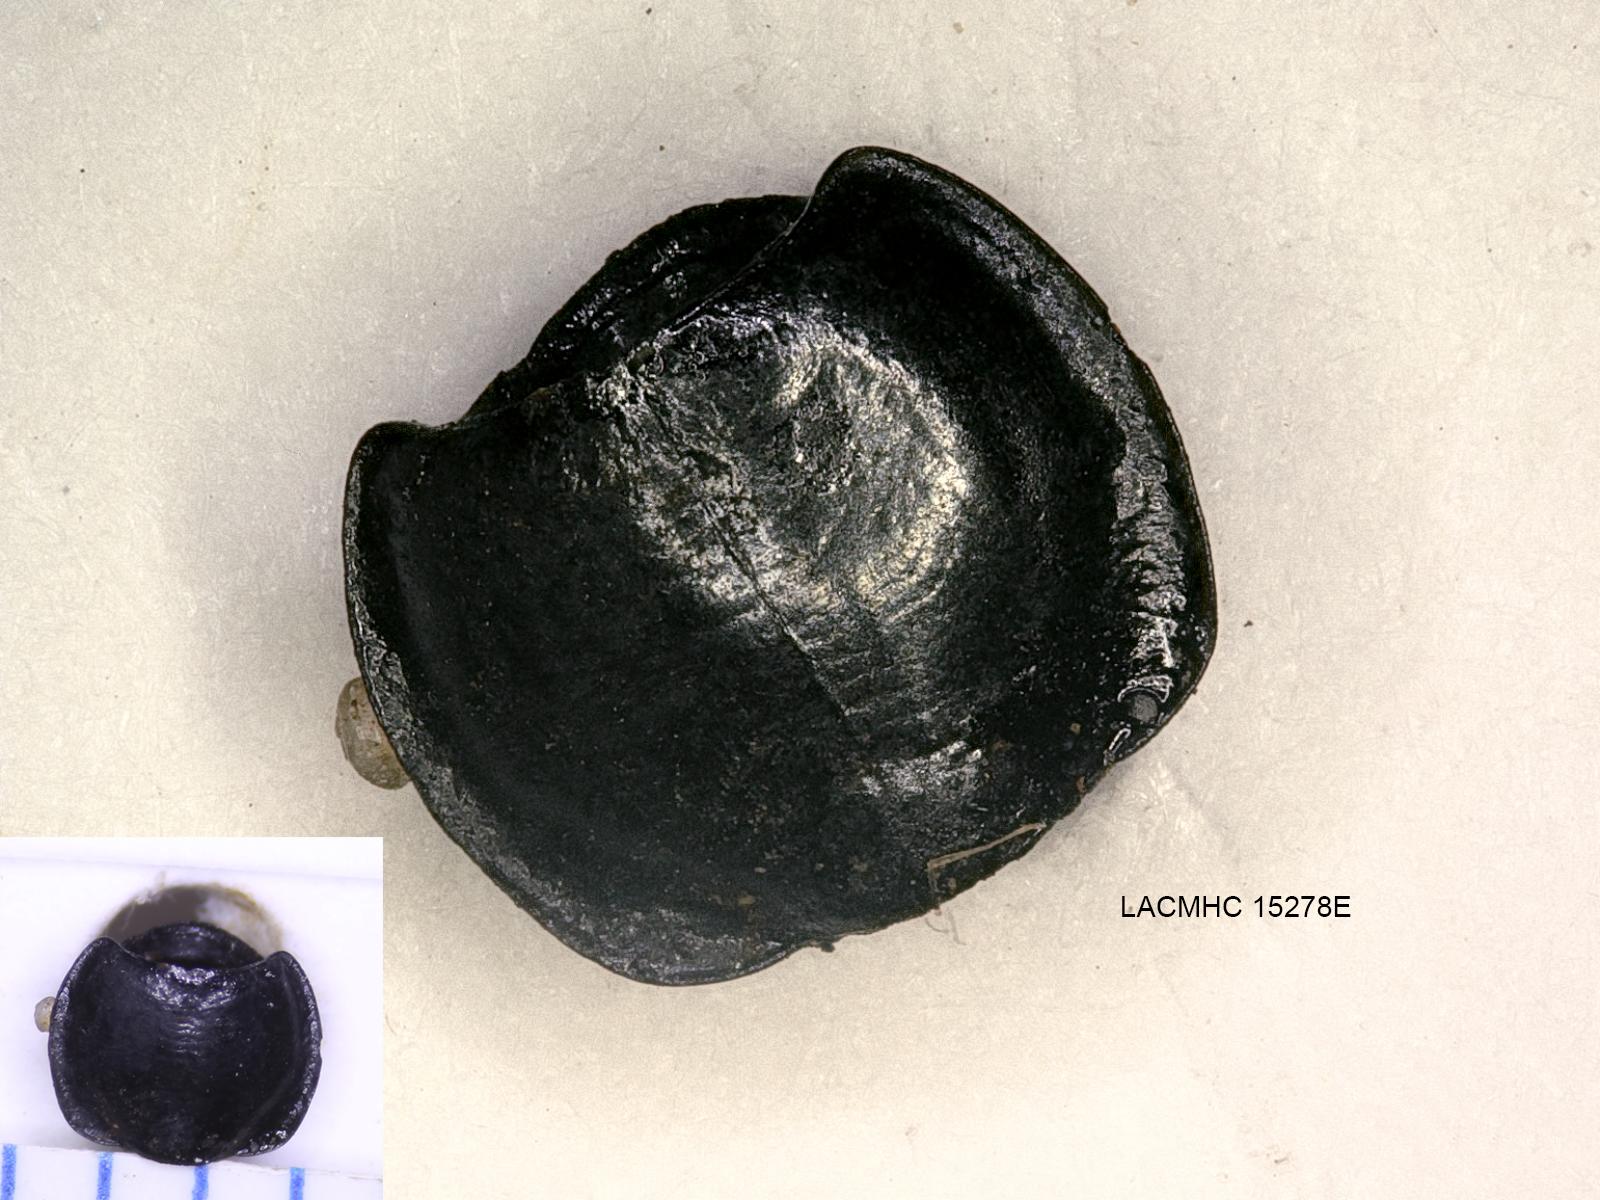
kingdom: Animalia
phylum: Arthropoda
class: Insecta
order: Coleoptera
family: Carabidae
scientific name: Carabidae
